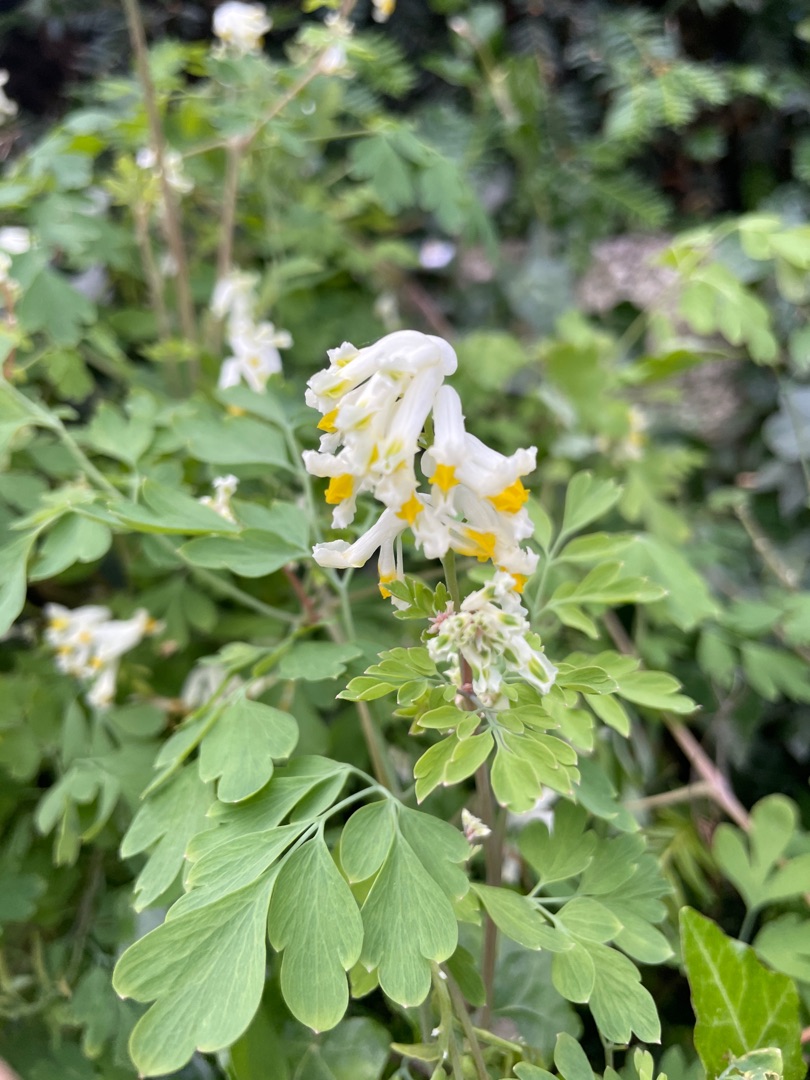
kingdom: Plantae
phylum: Tracheophyta
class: Magnoliopsida
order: Ranunculales
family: Papaveraceae
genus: Pseudofumaria
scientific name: Pseudofumaria alba
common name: Hvidgul lærkespore
